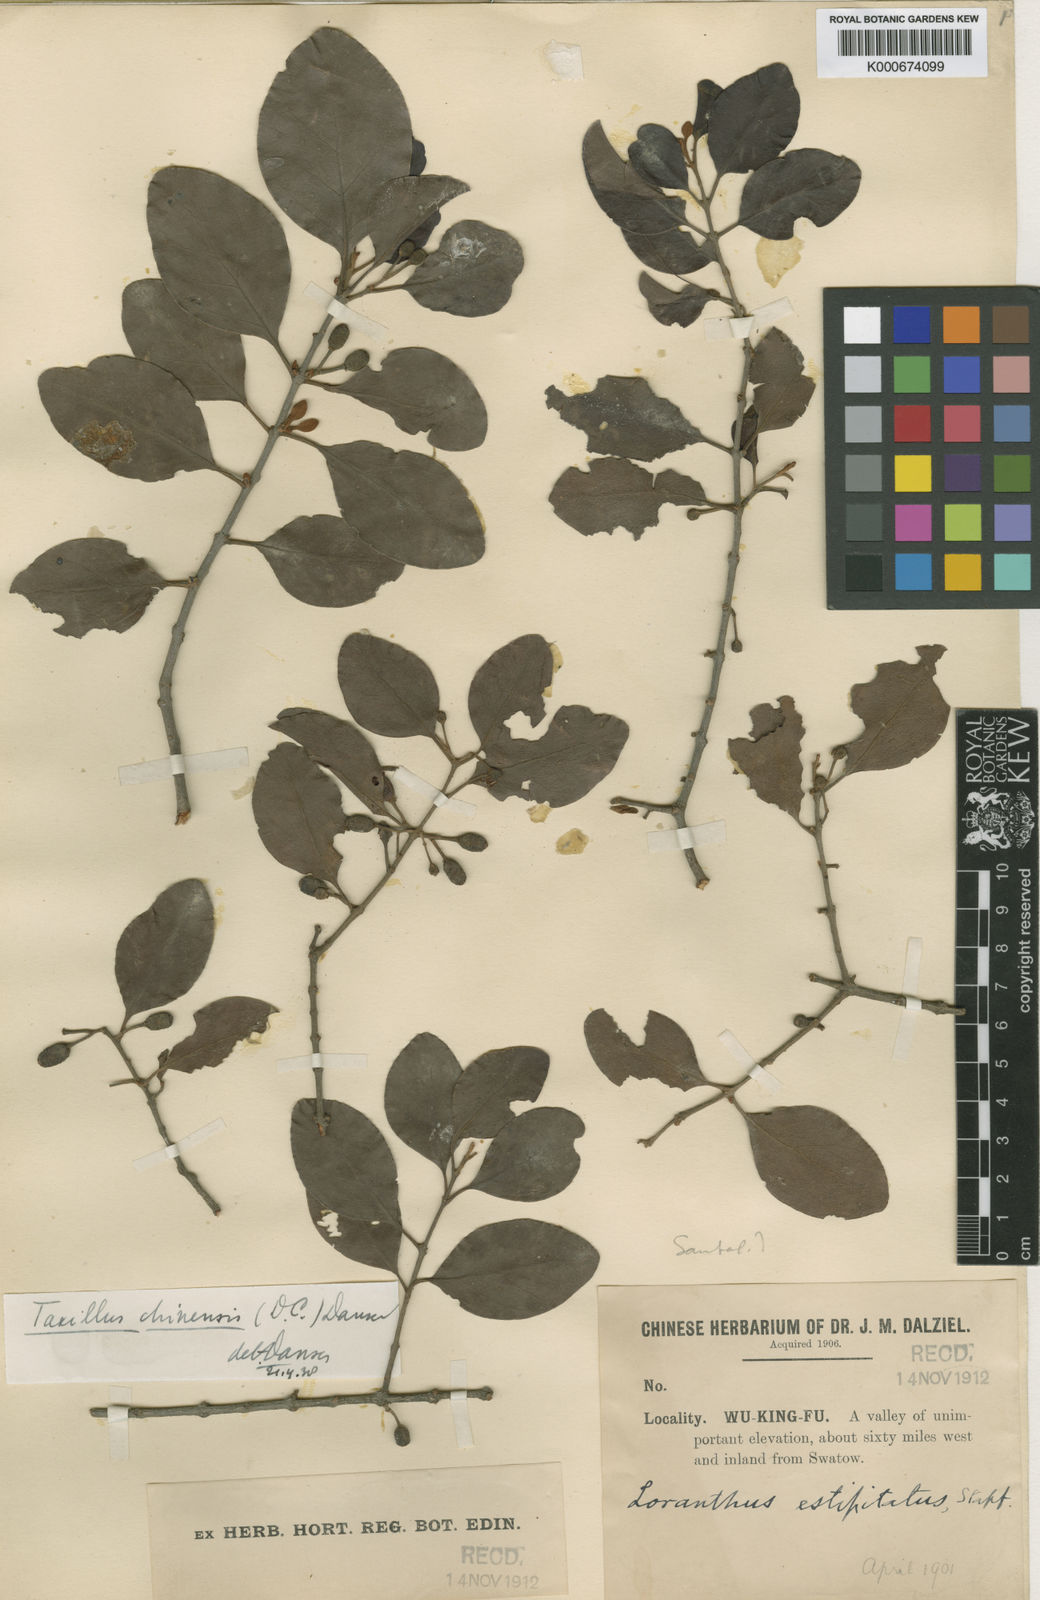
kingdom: Plantae
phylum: Tracheophyta
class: Magnoliopsida
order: Santalales
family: Loranthaceae
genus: Taxillus
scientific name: Taxillus chinensis
